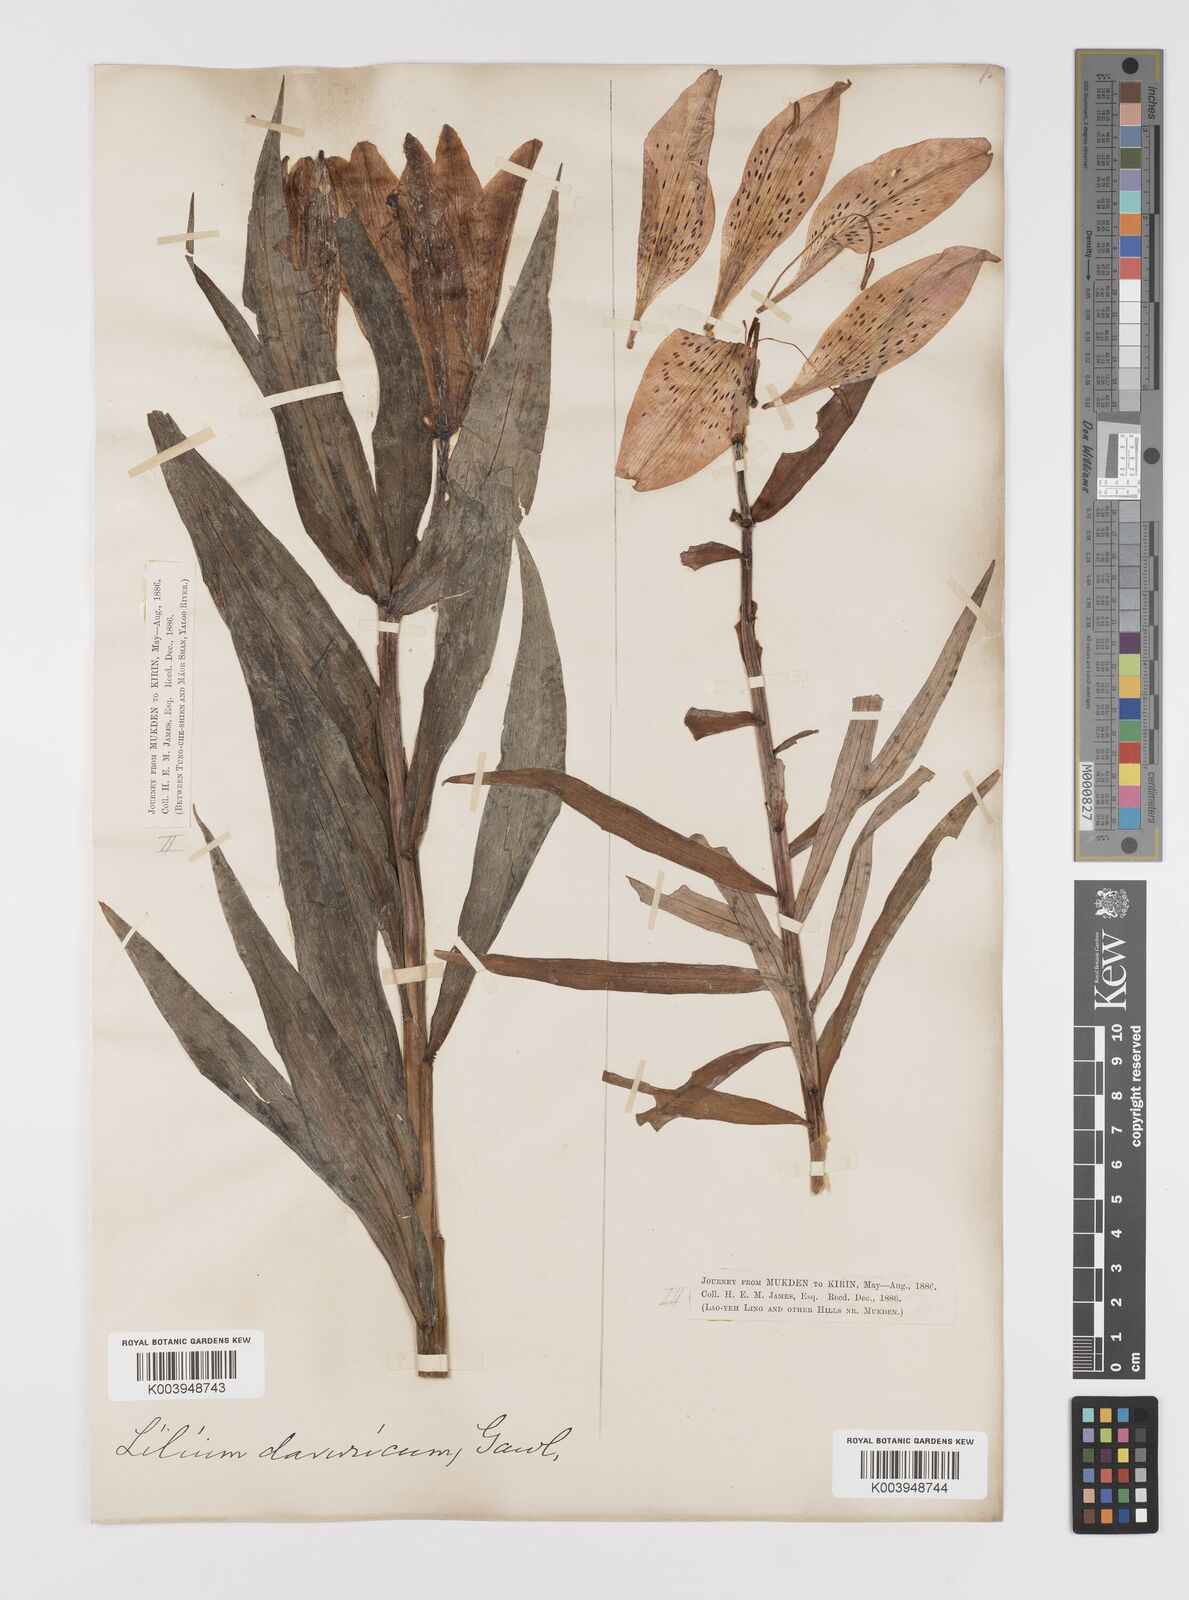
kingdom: Plantae
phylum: Tracheophyta
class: Liliopsida
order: Liliales
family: Liliaceae
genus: Lilium
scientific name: Lilium pensylvanicum
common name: Candlestick lily
